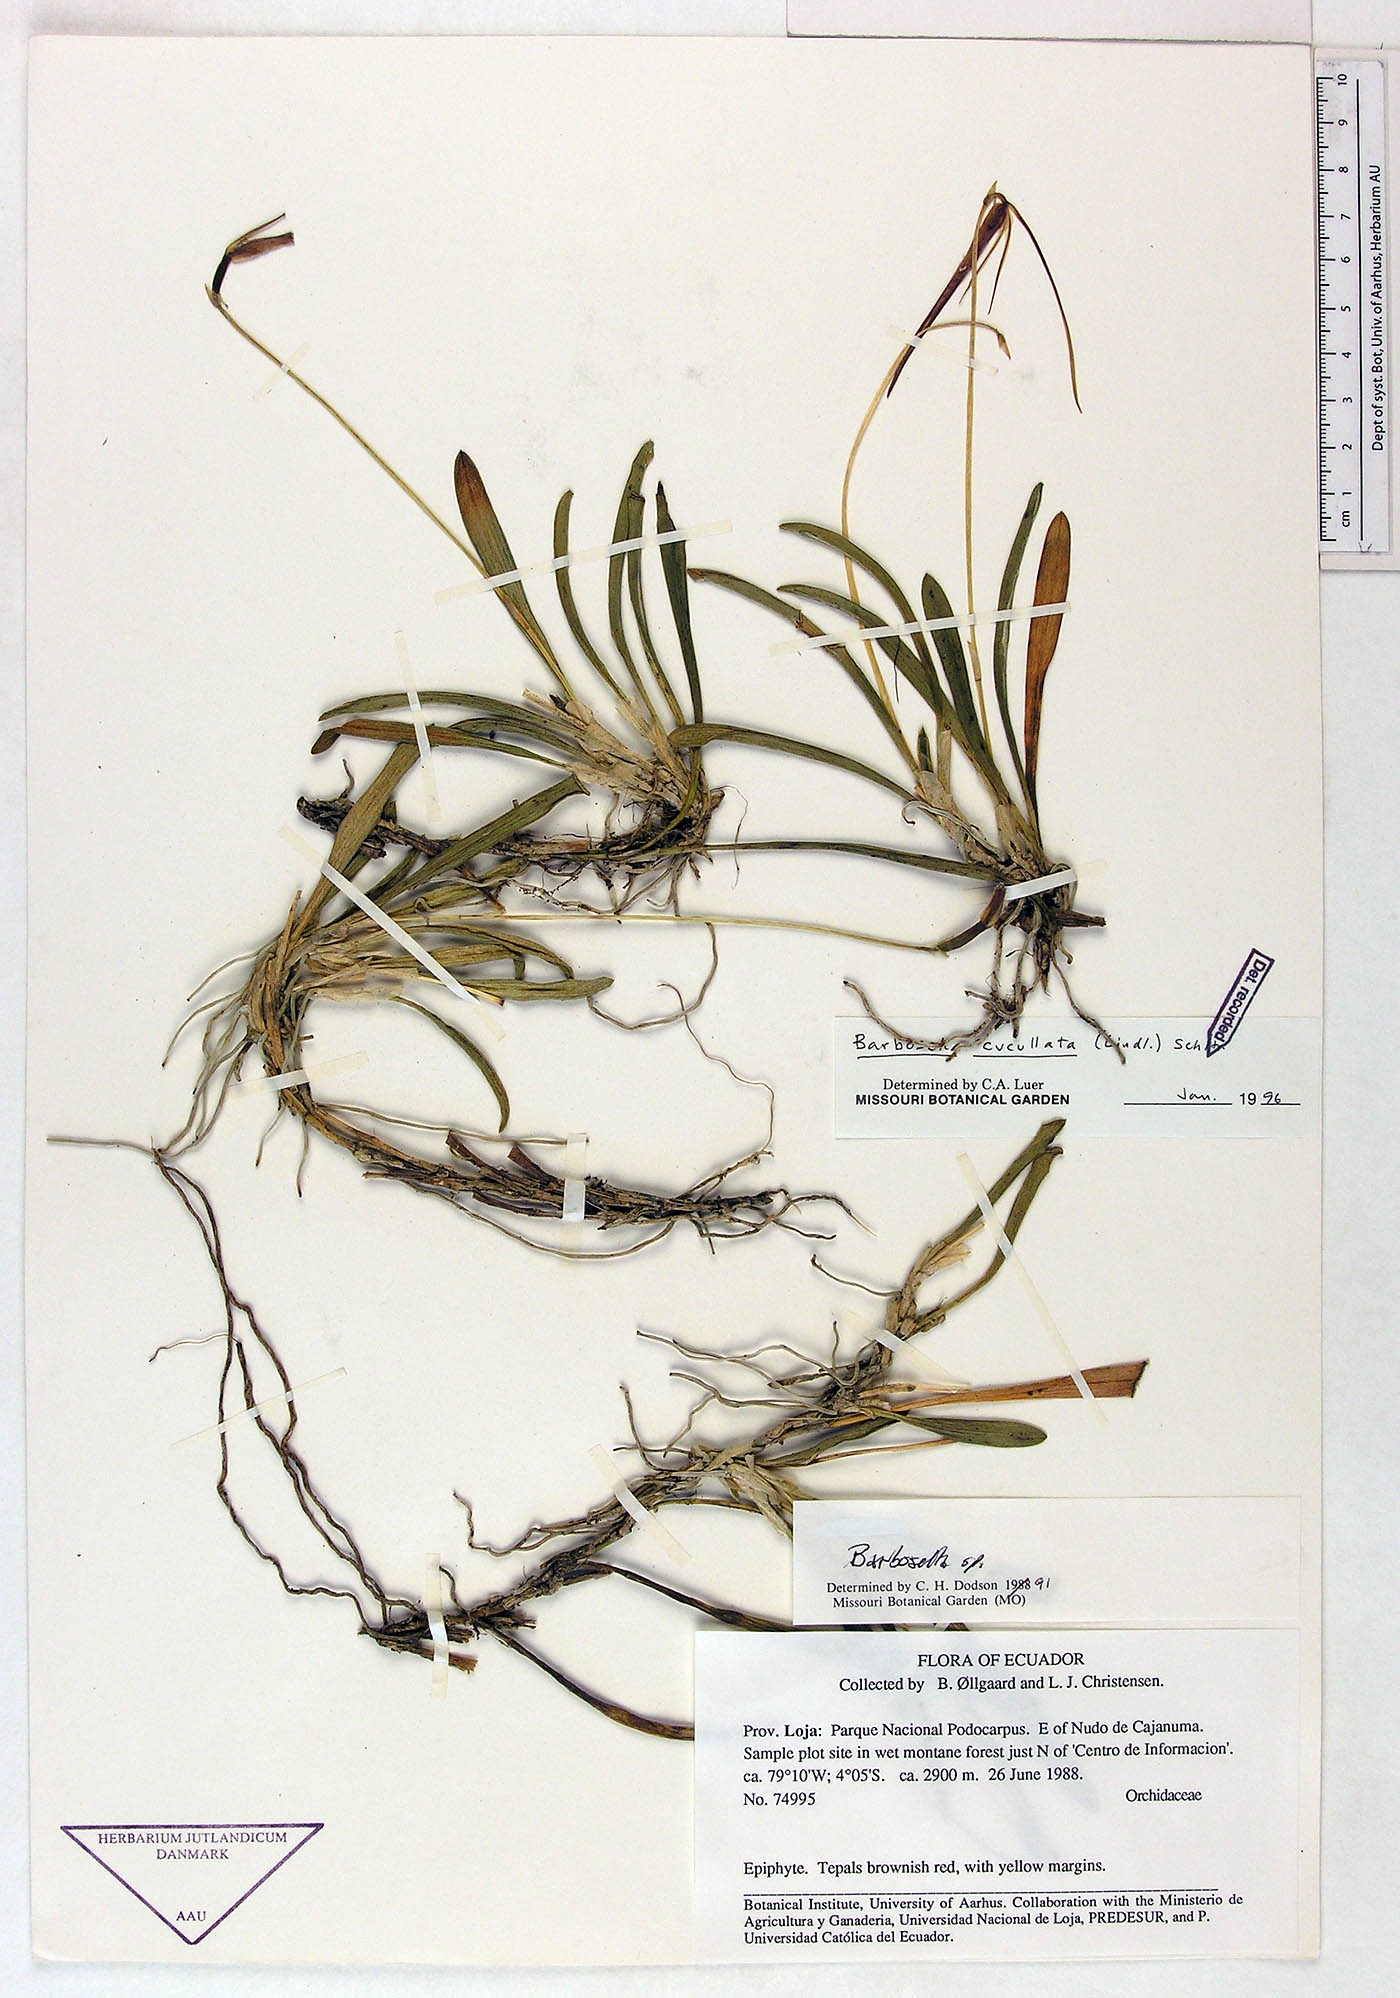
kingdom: Plantae
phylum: Tracheophyta
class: Liliopsida
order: Asparagales
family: Orchidaceae
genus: Barbosella
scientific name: Barbosella cucullata
